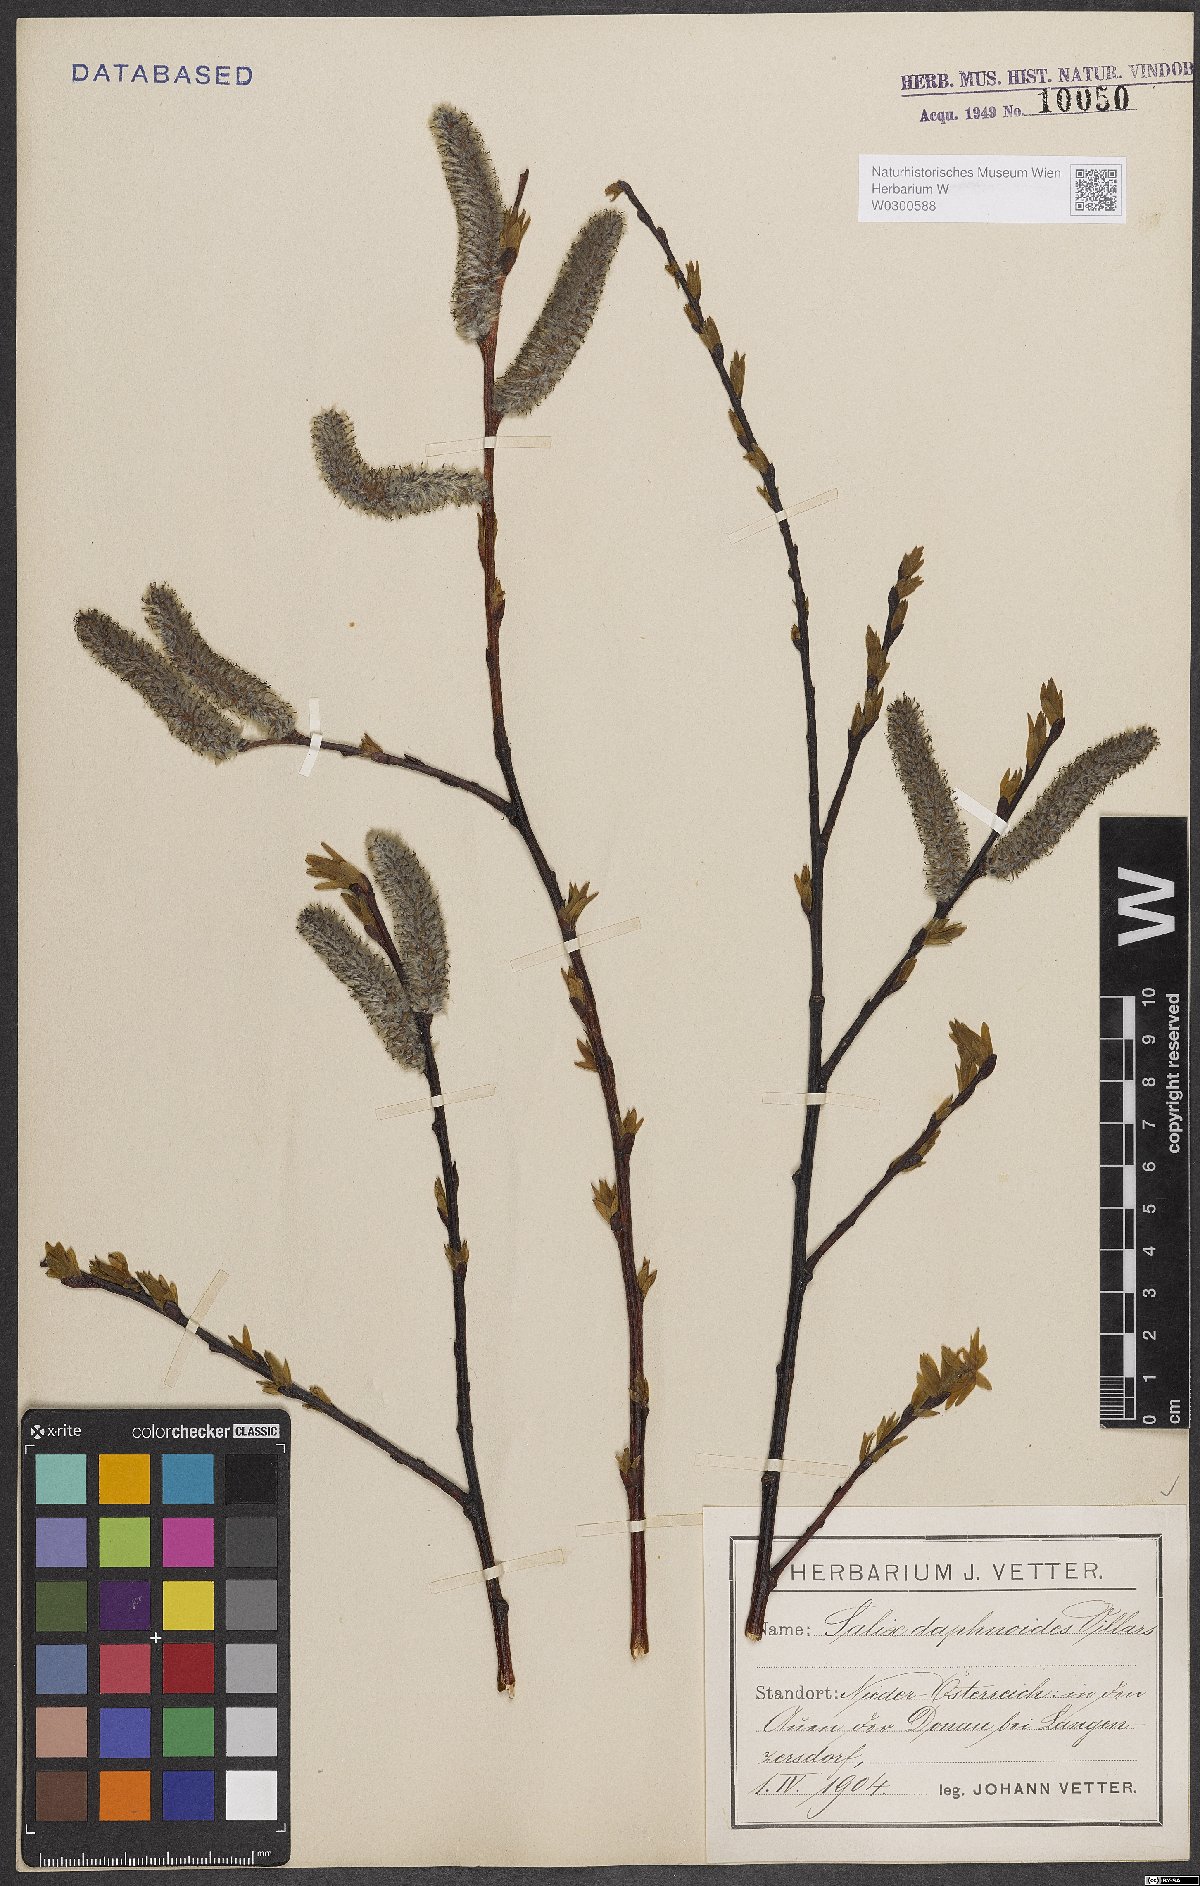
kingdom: Plantae
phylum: Tracheophyta
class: Magnoliopsida
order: Malpighiales
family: Salicaceae
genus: Salix
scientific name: Salix daphnoides
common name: European violet-willow
